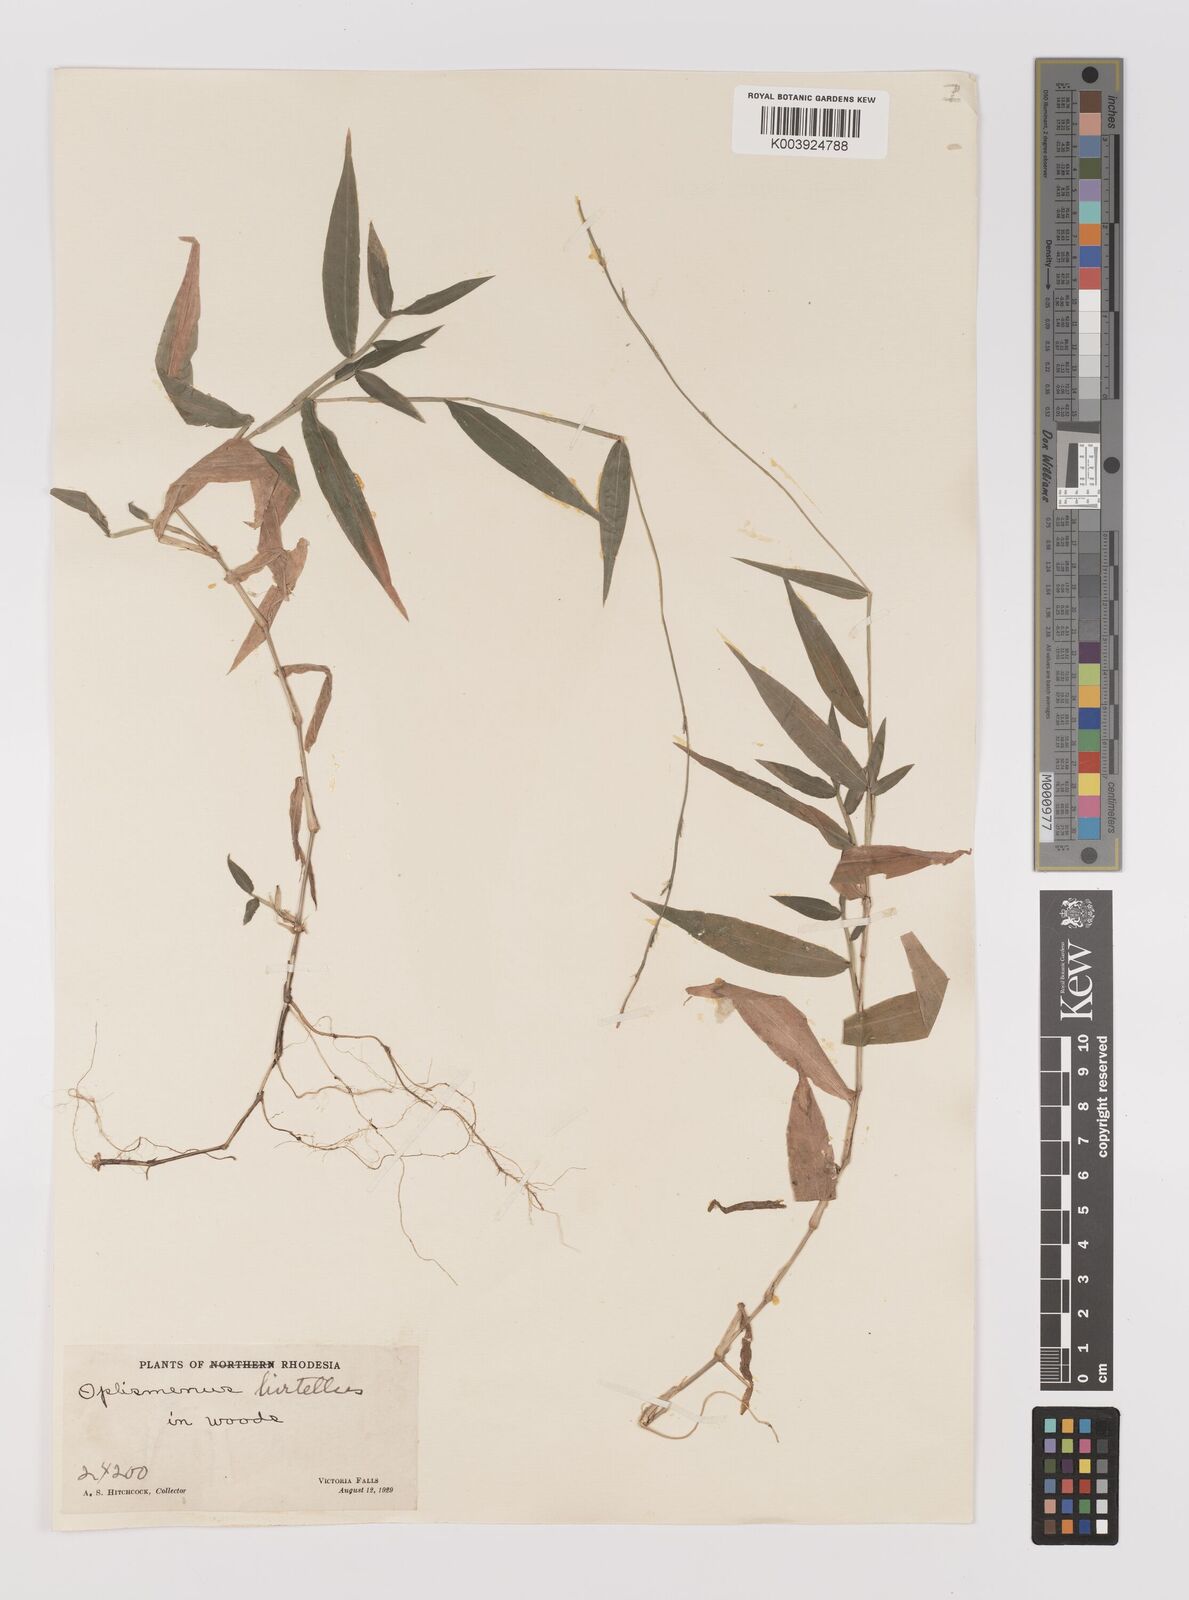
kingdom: Plantae
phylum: Tracheophyta
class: Liliopsida
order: Poales
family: Poaceae
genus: Oplismenus
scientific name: Oplismenus hirtellus
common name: Basketgrass
